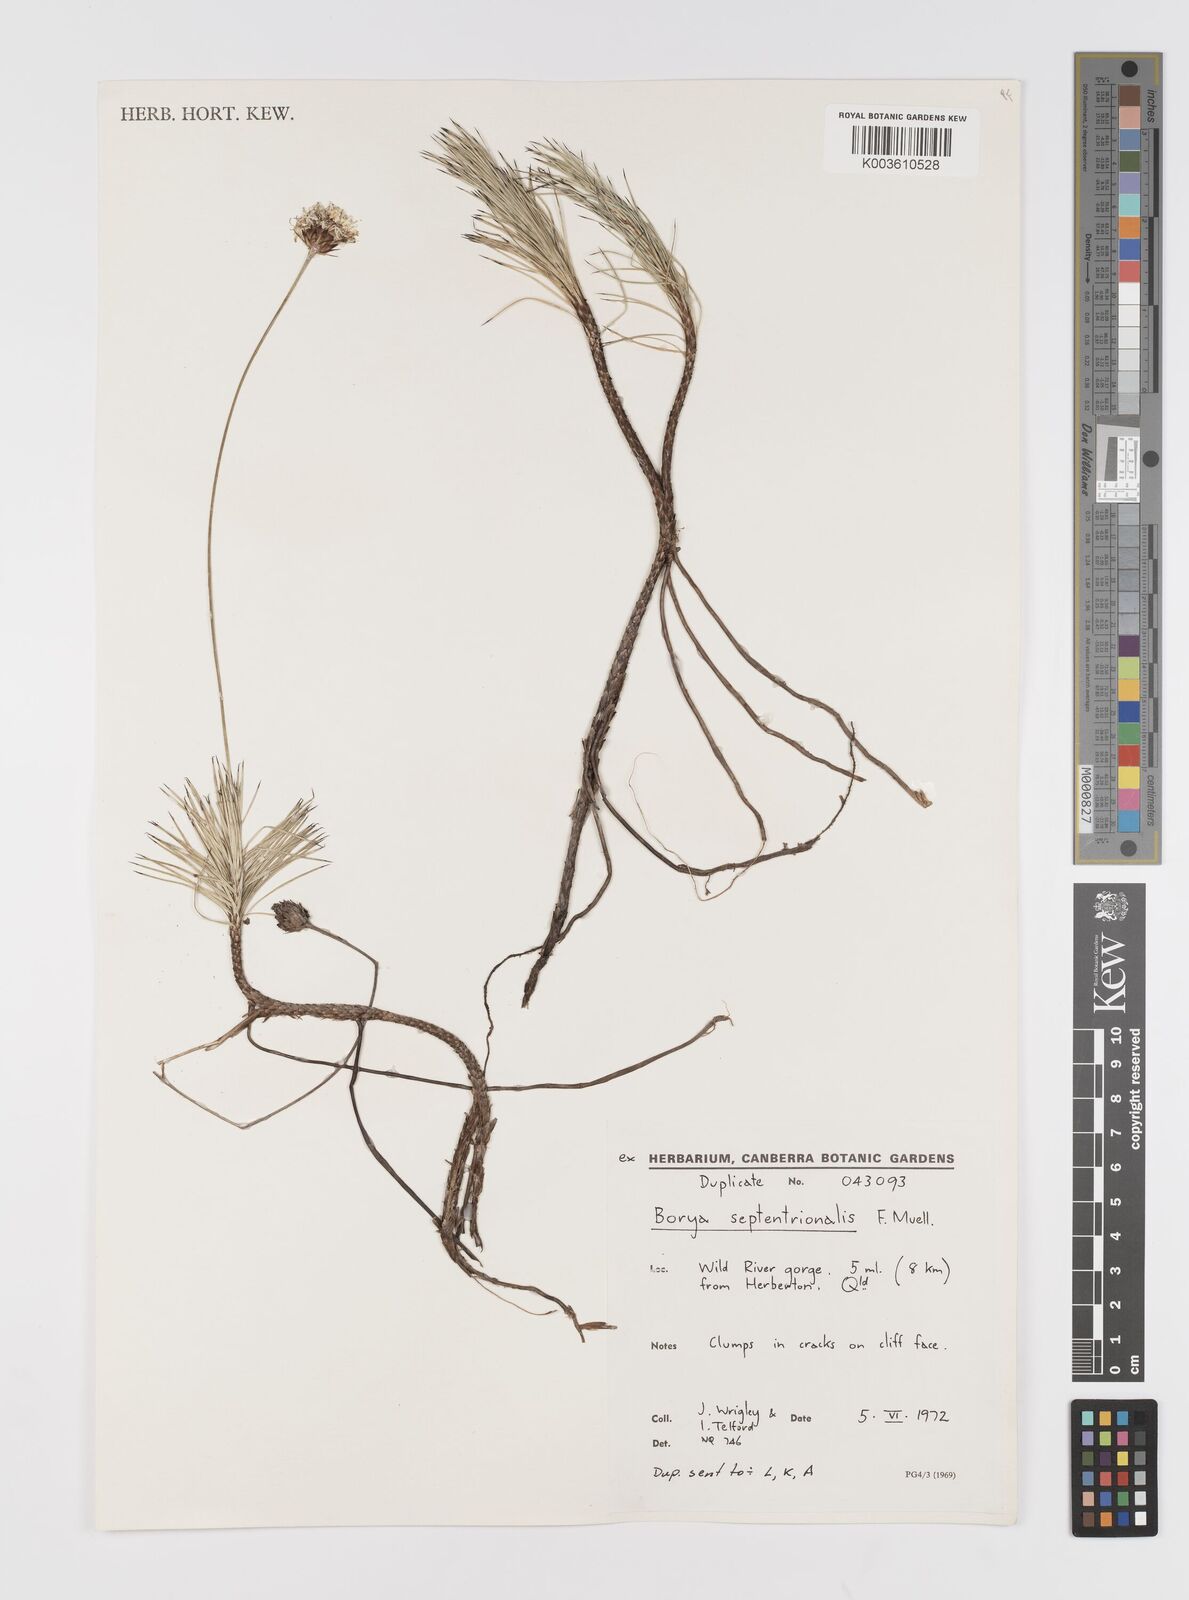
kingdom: Plantae
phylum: Tracheophyta
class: Liliopsida
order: Asparagales
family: Boryaceae
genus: Borya
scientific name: Borya septentrionalis
